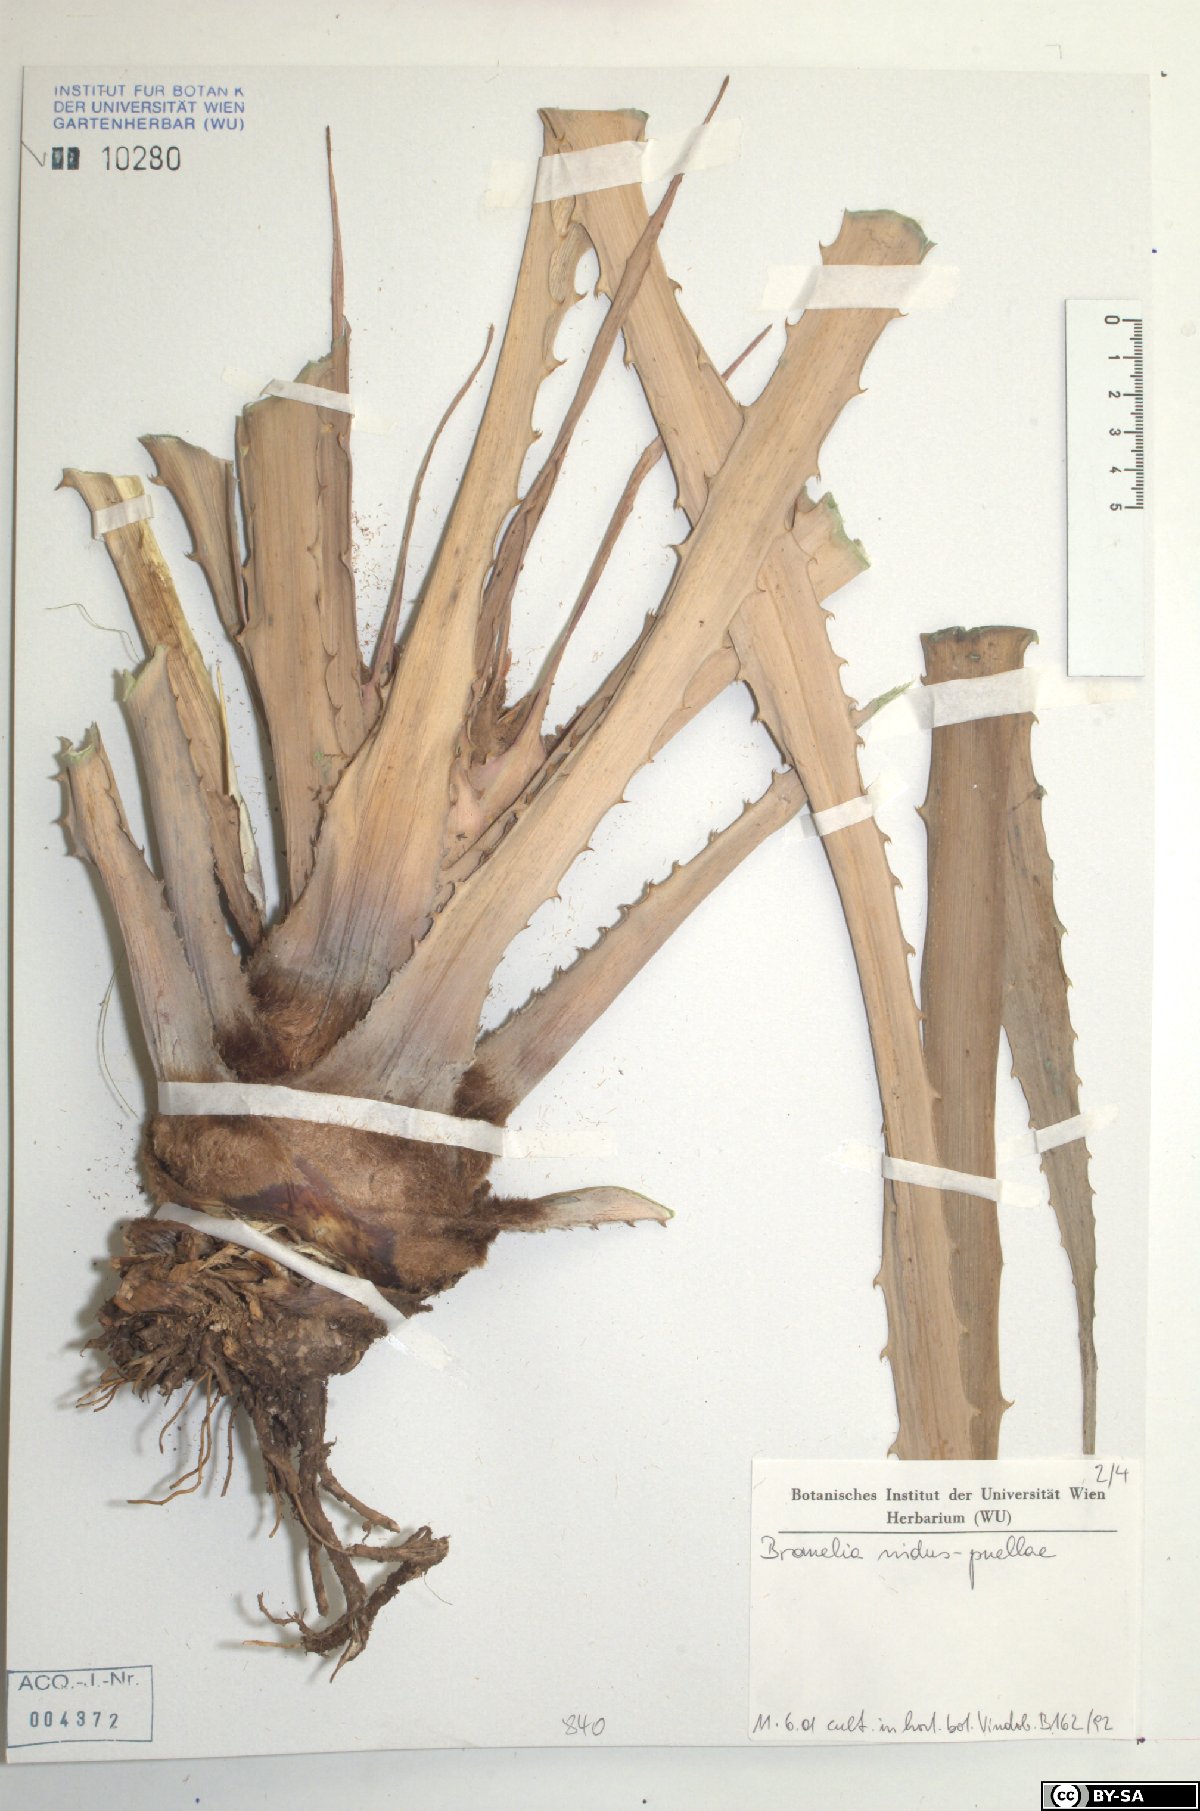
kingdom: Plantae
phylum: Tracheophyta
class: Liliopsida
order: Poales
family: Bromeliaceae
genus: Bromelia
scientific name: Bromelia nidus-puellae
